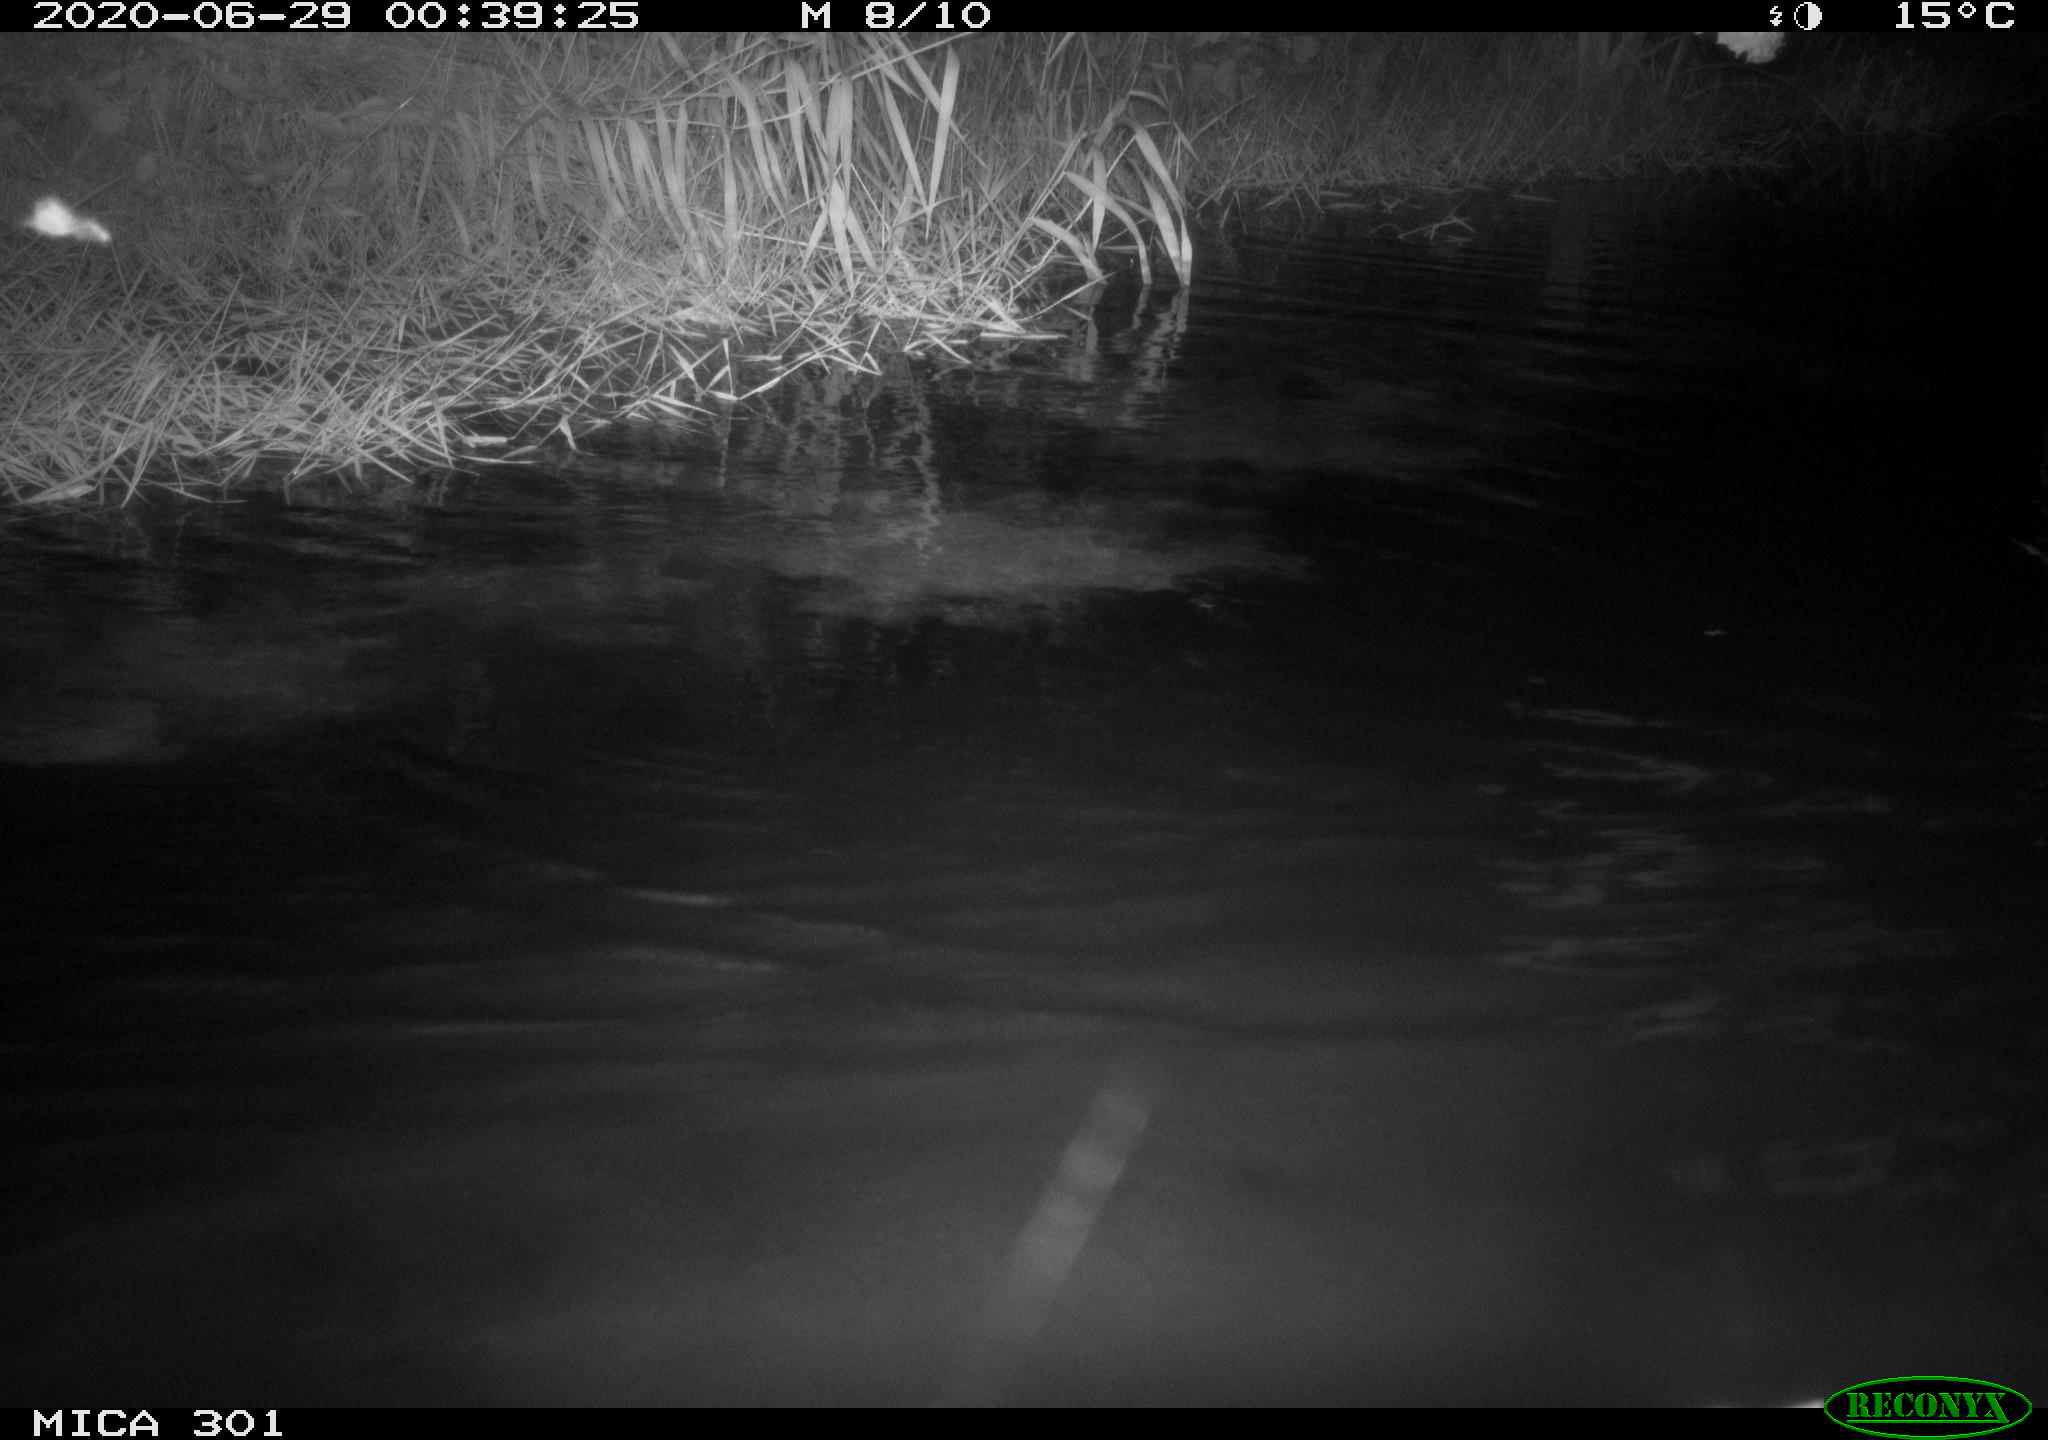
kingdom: Animalia
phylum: Chordata
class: Mammalia
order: Rodentia
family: Castoridae
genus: Castor
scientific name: Castor fiber
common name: Eurasian beaver
